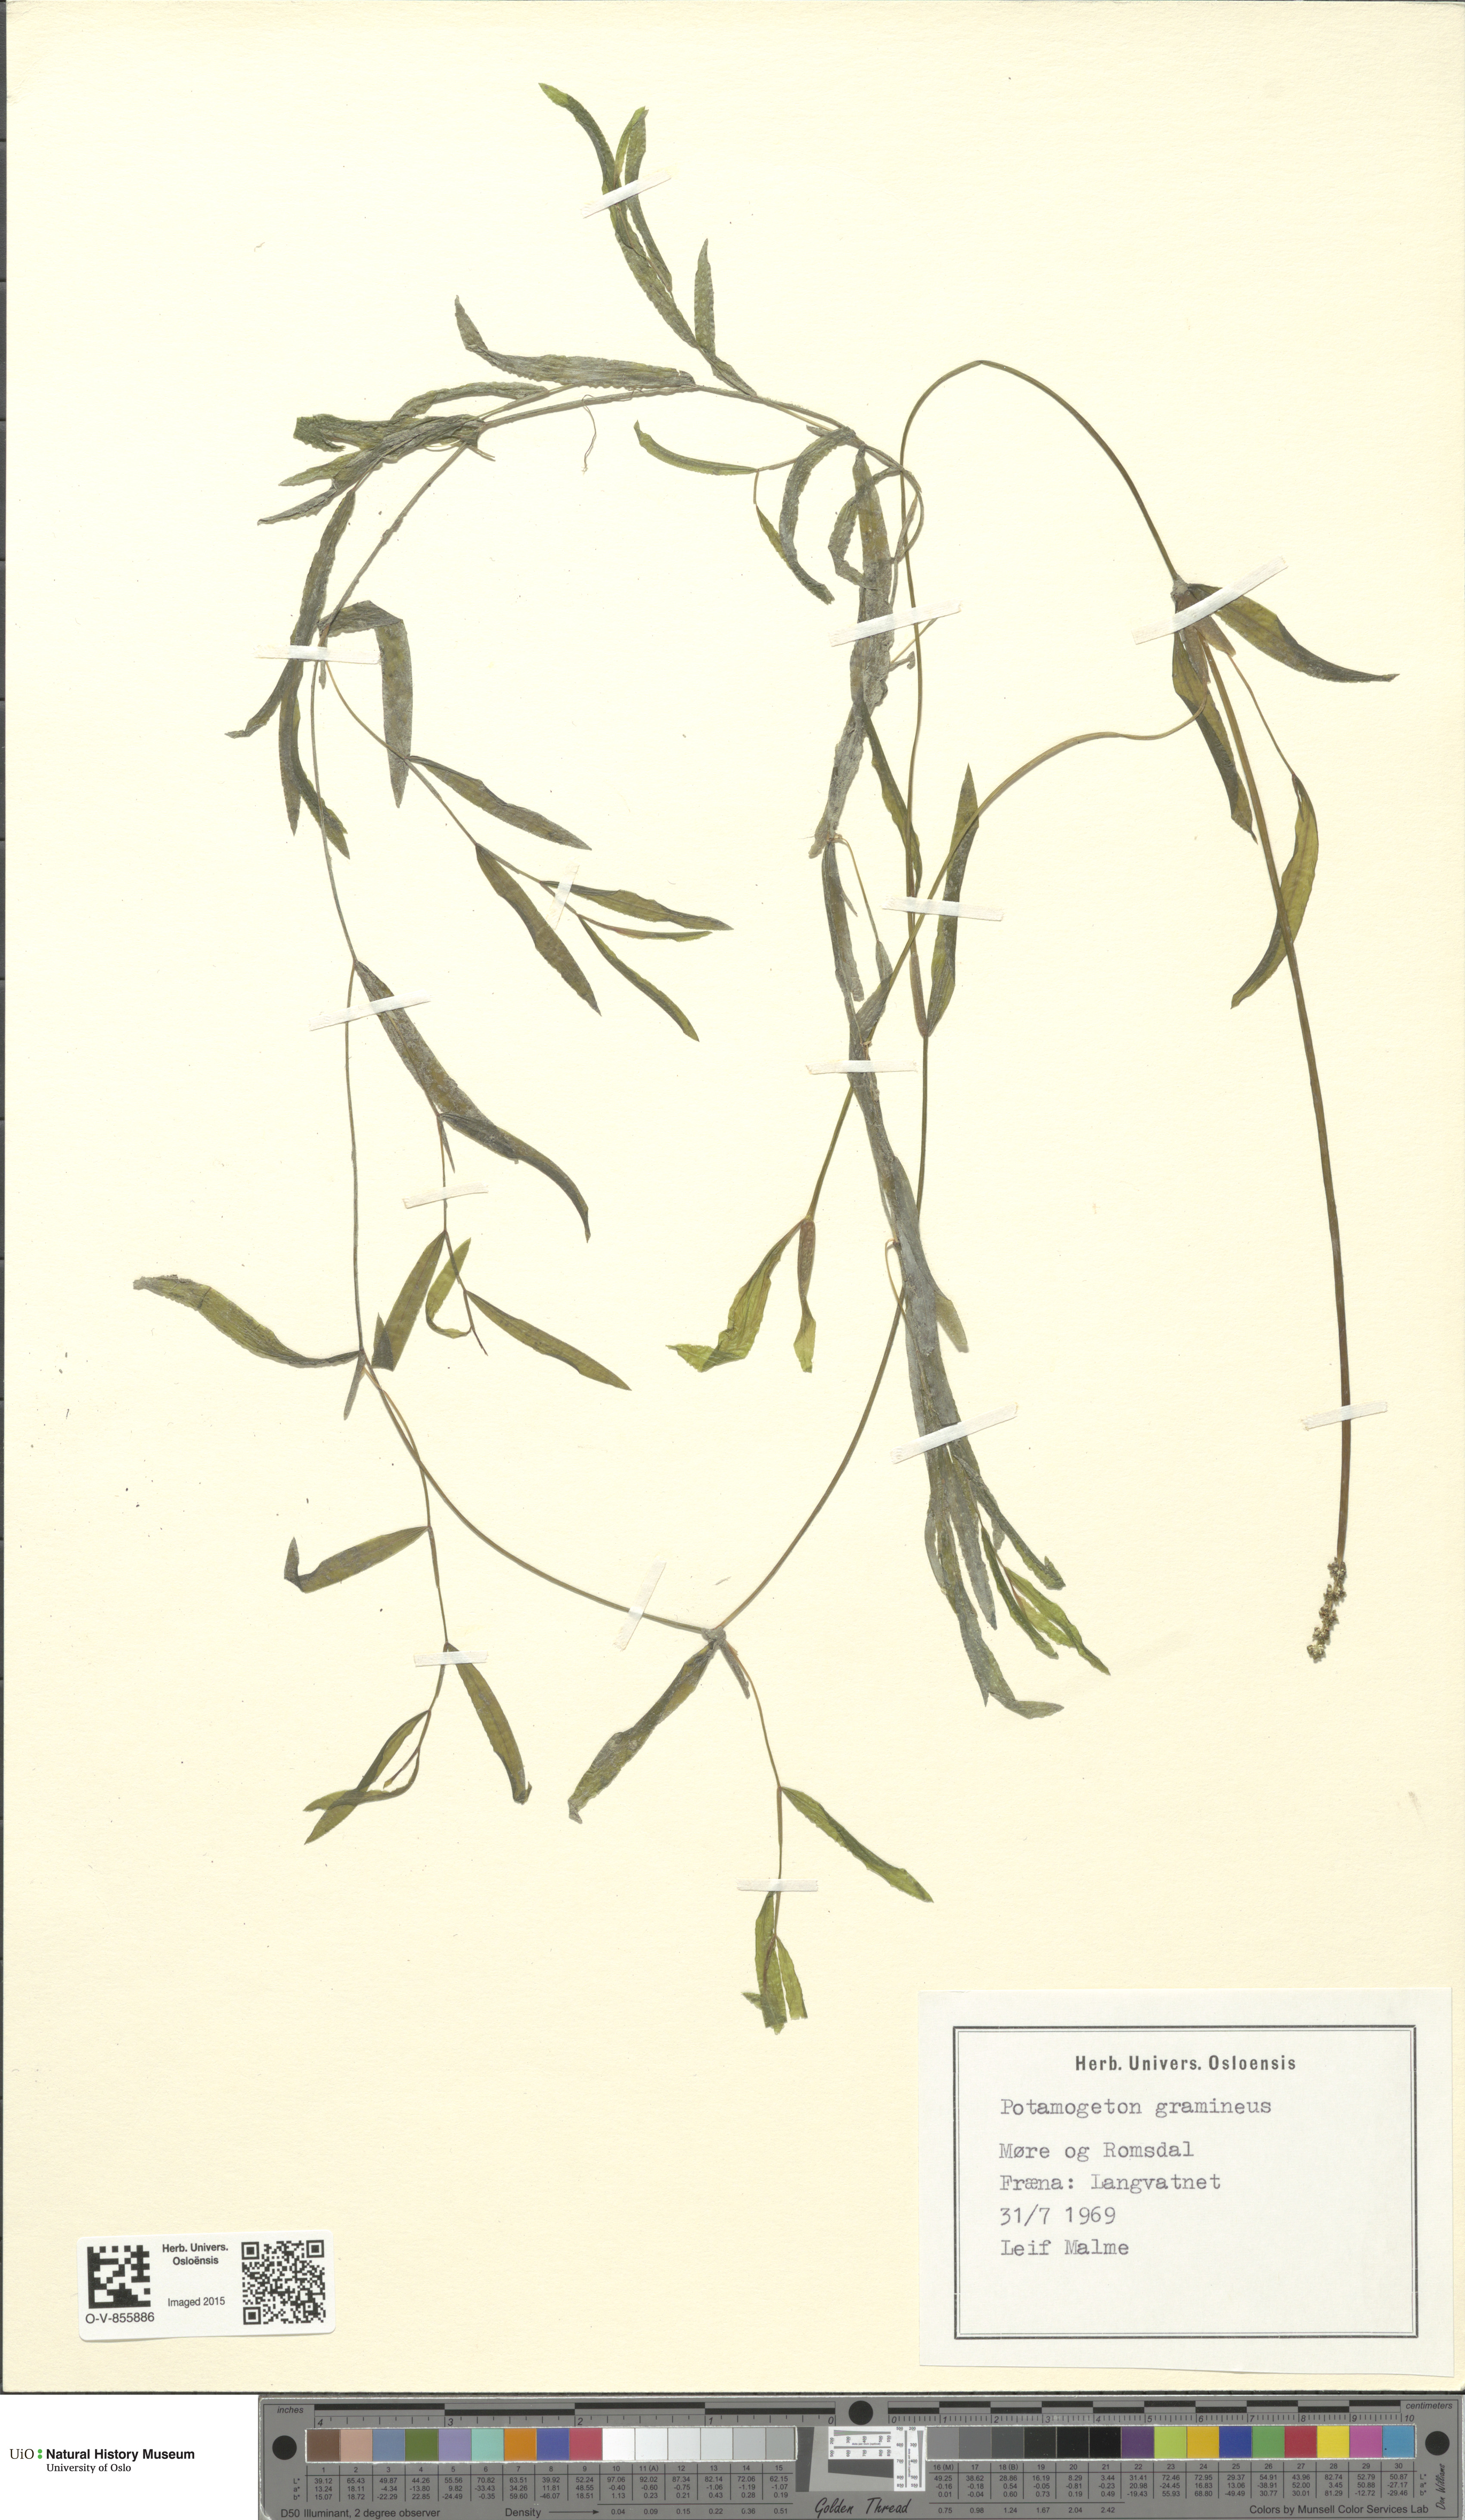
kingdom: Plantae
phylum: Tracheophyta
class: Liliopsida
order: Alismatales
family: Potamogetonaceae
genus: Potamogeton
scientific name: Potamogeton gramineus
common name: Various-leaved pondweed
